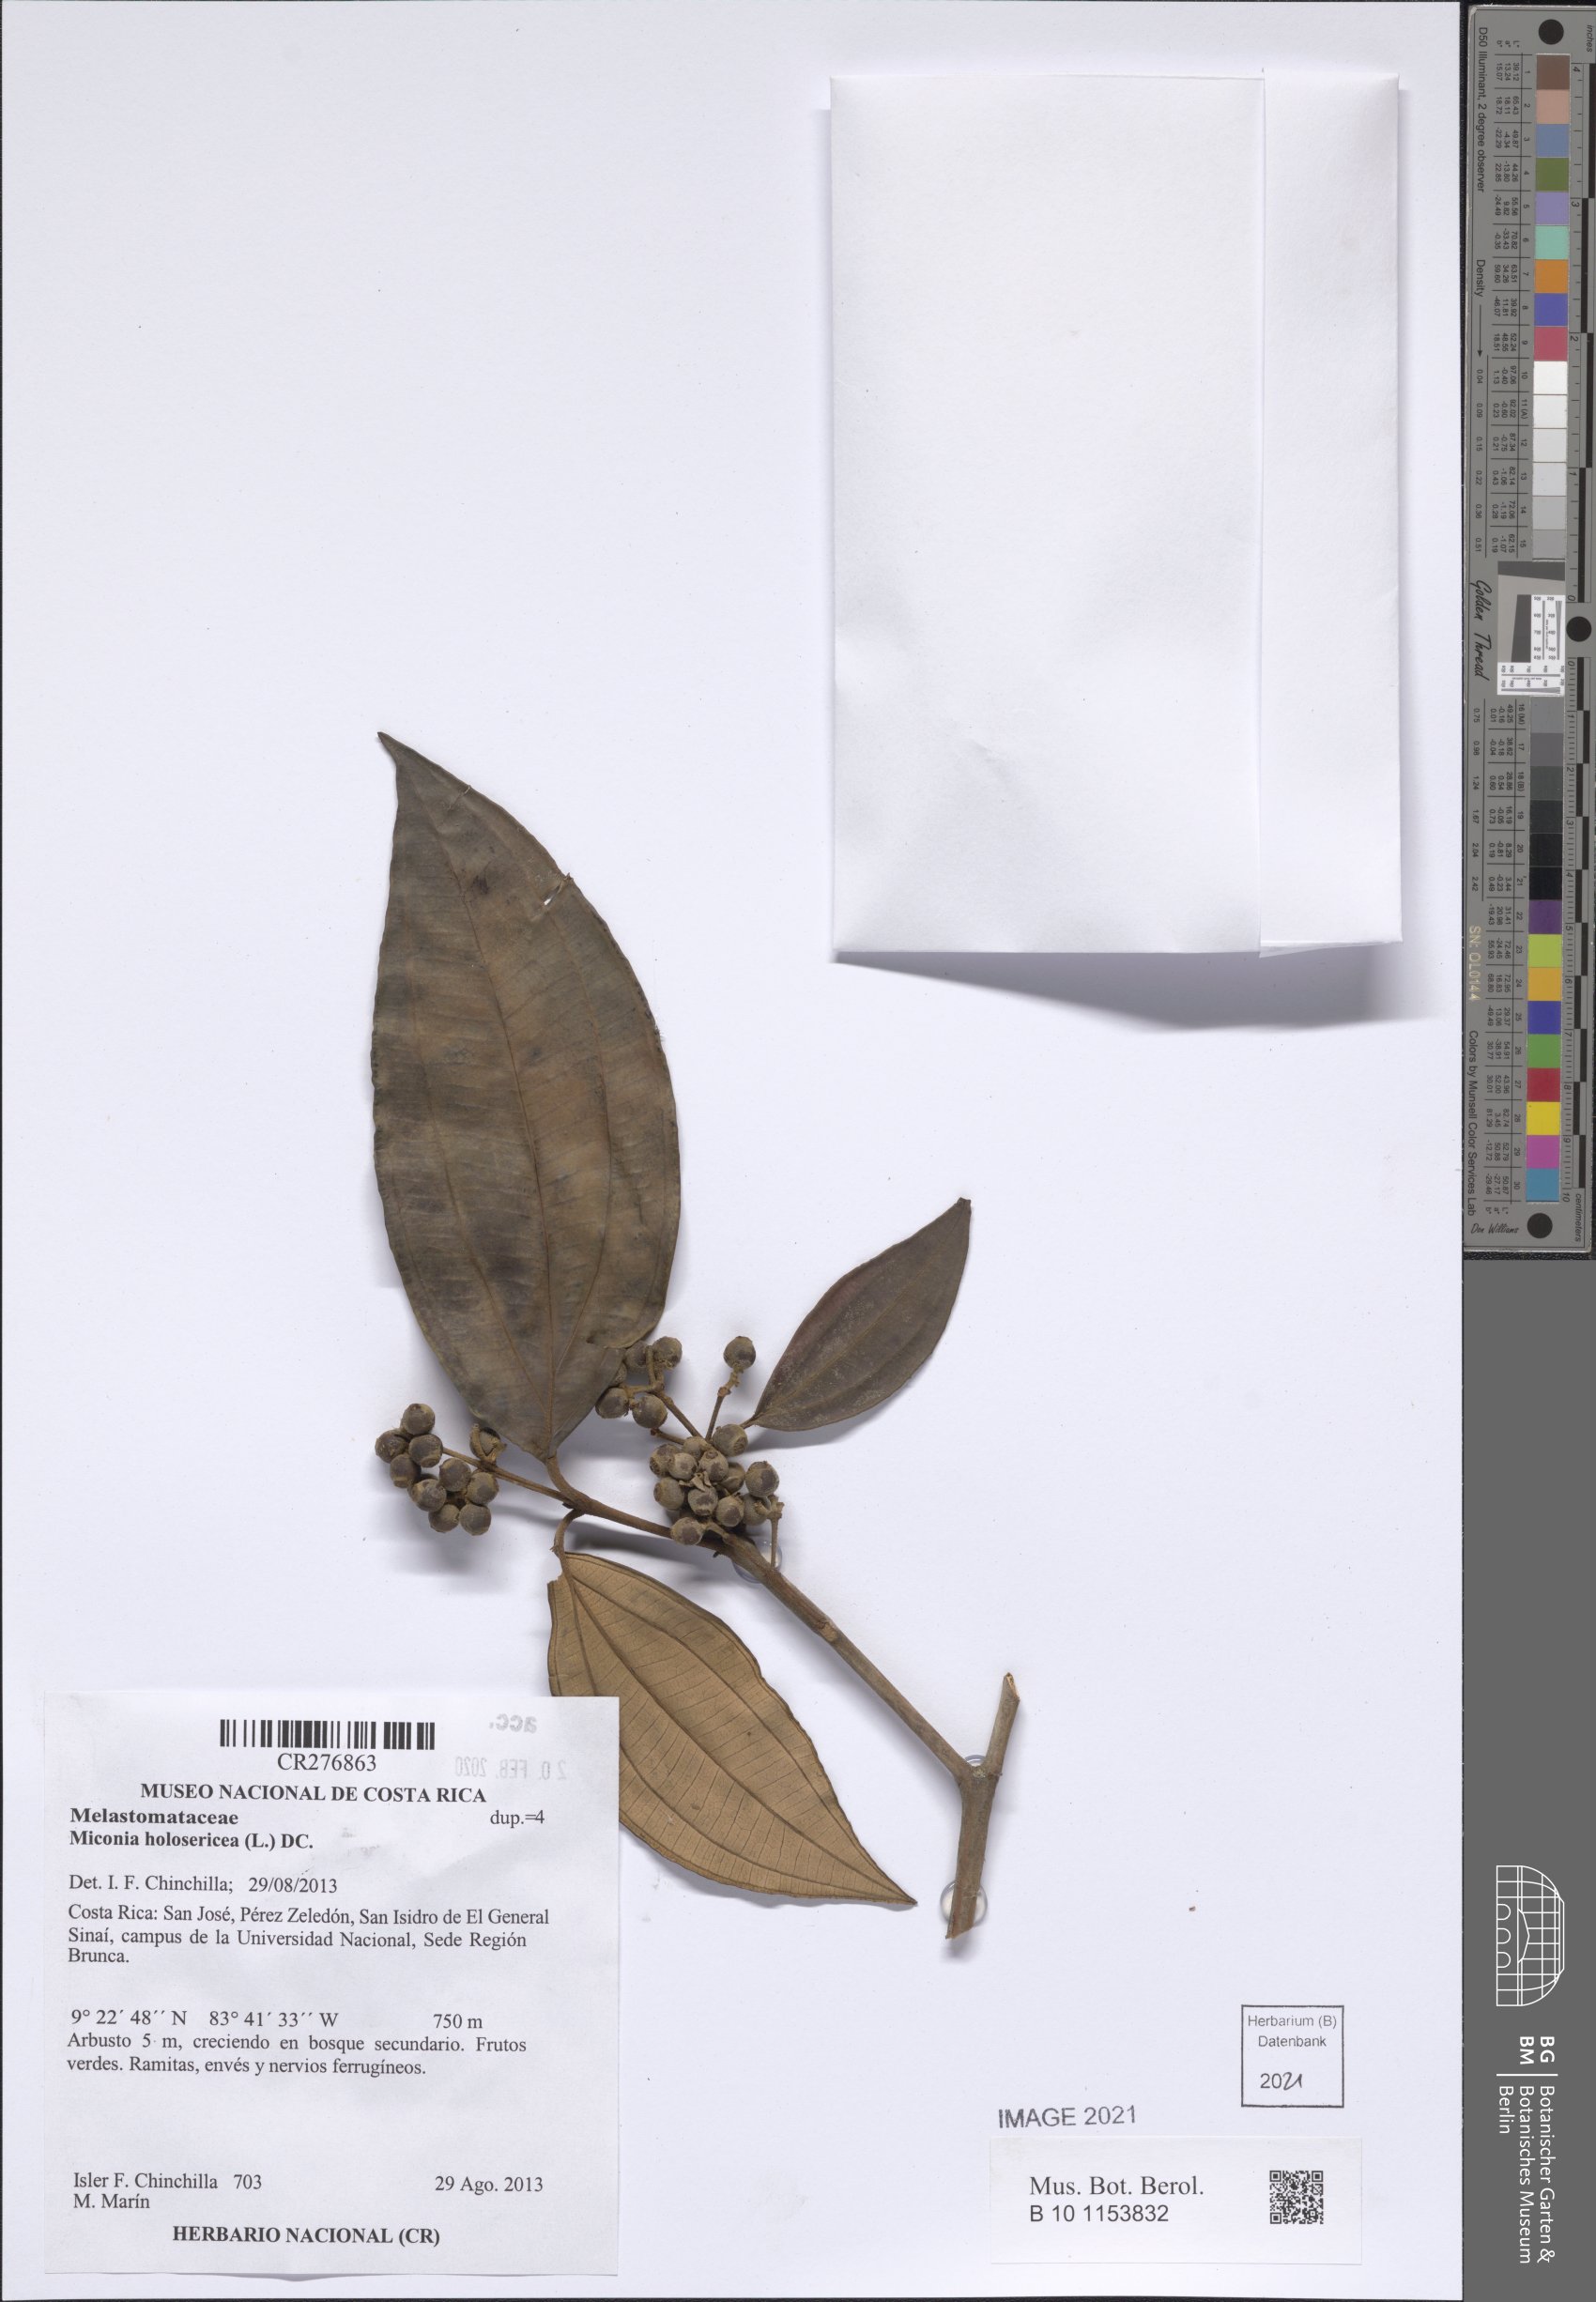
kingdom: Plantae
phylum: Tracheophyta
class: Magnoliopsida
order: Myrtales
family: Melastomataceae
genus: Miconia
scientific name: Miconia holosericea
